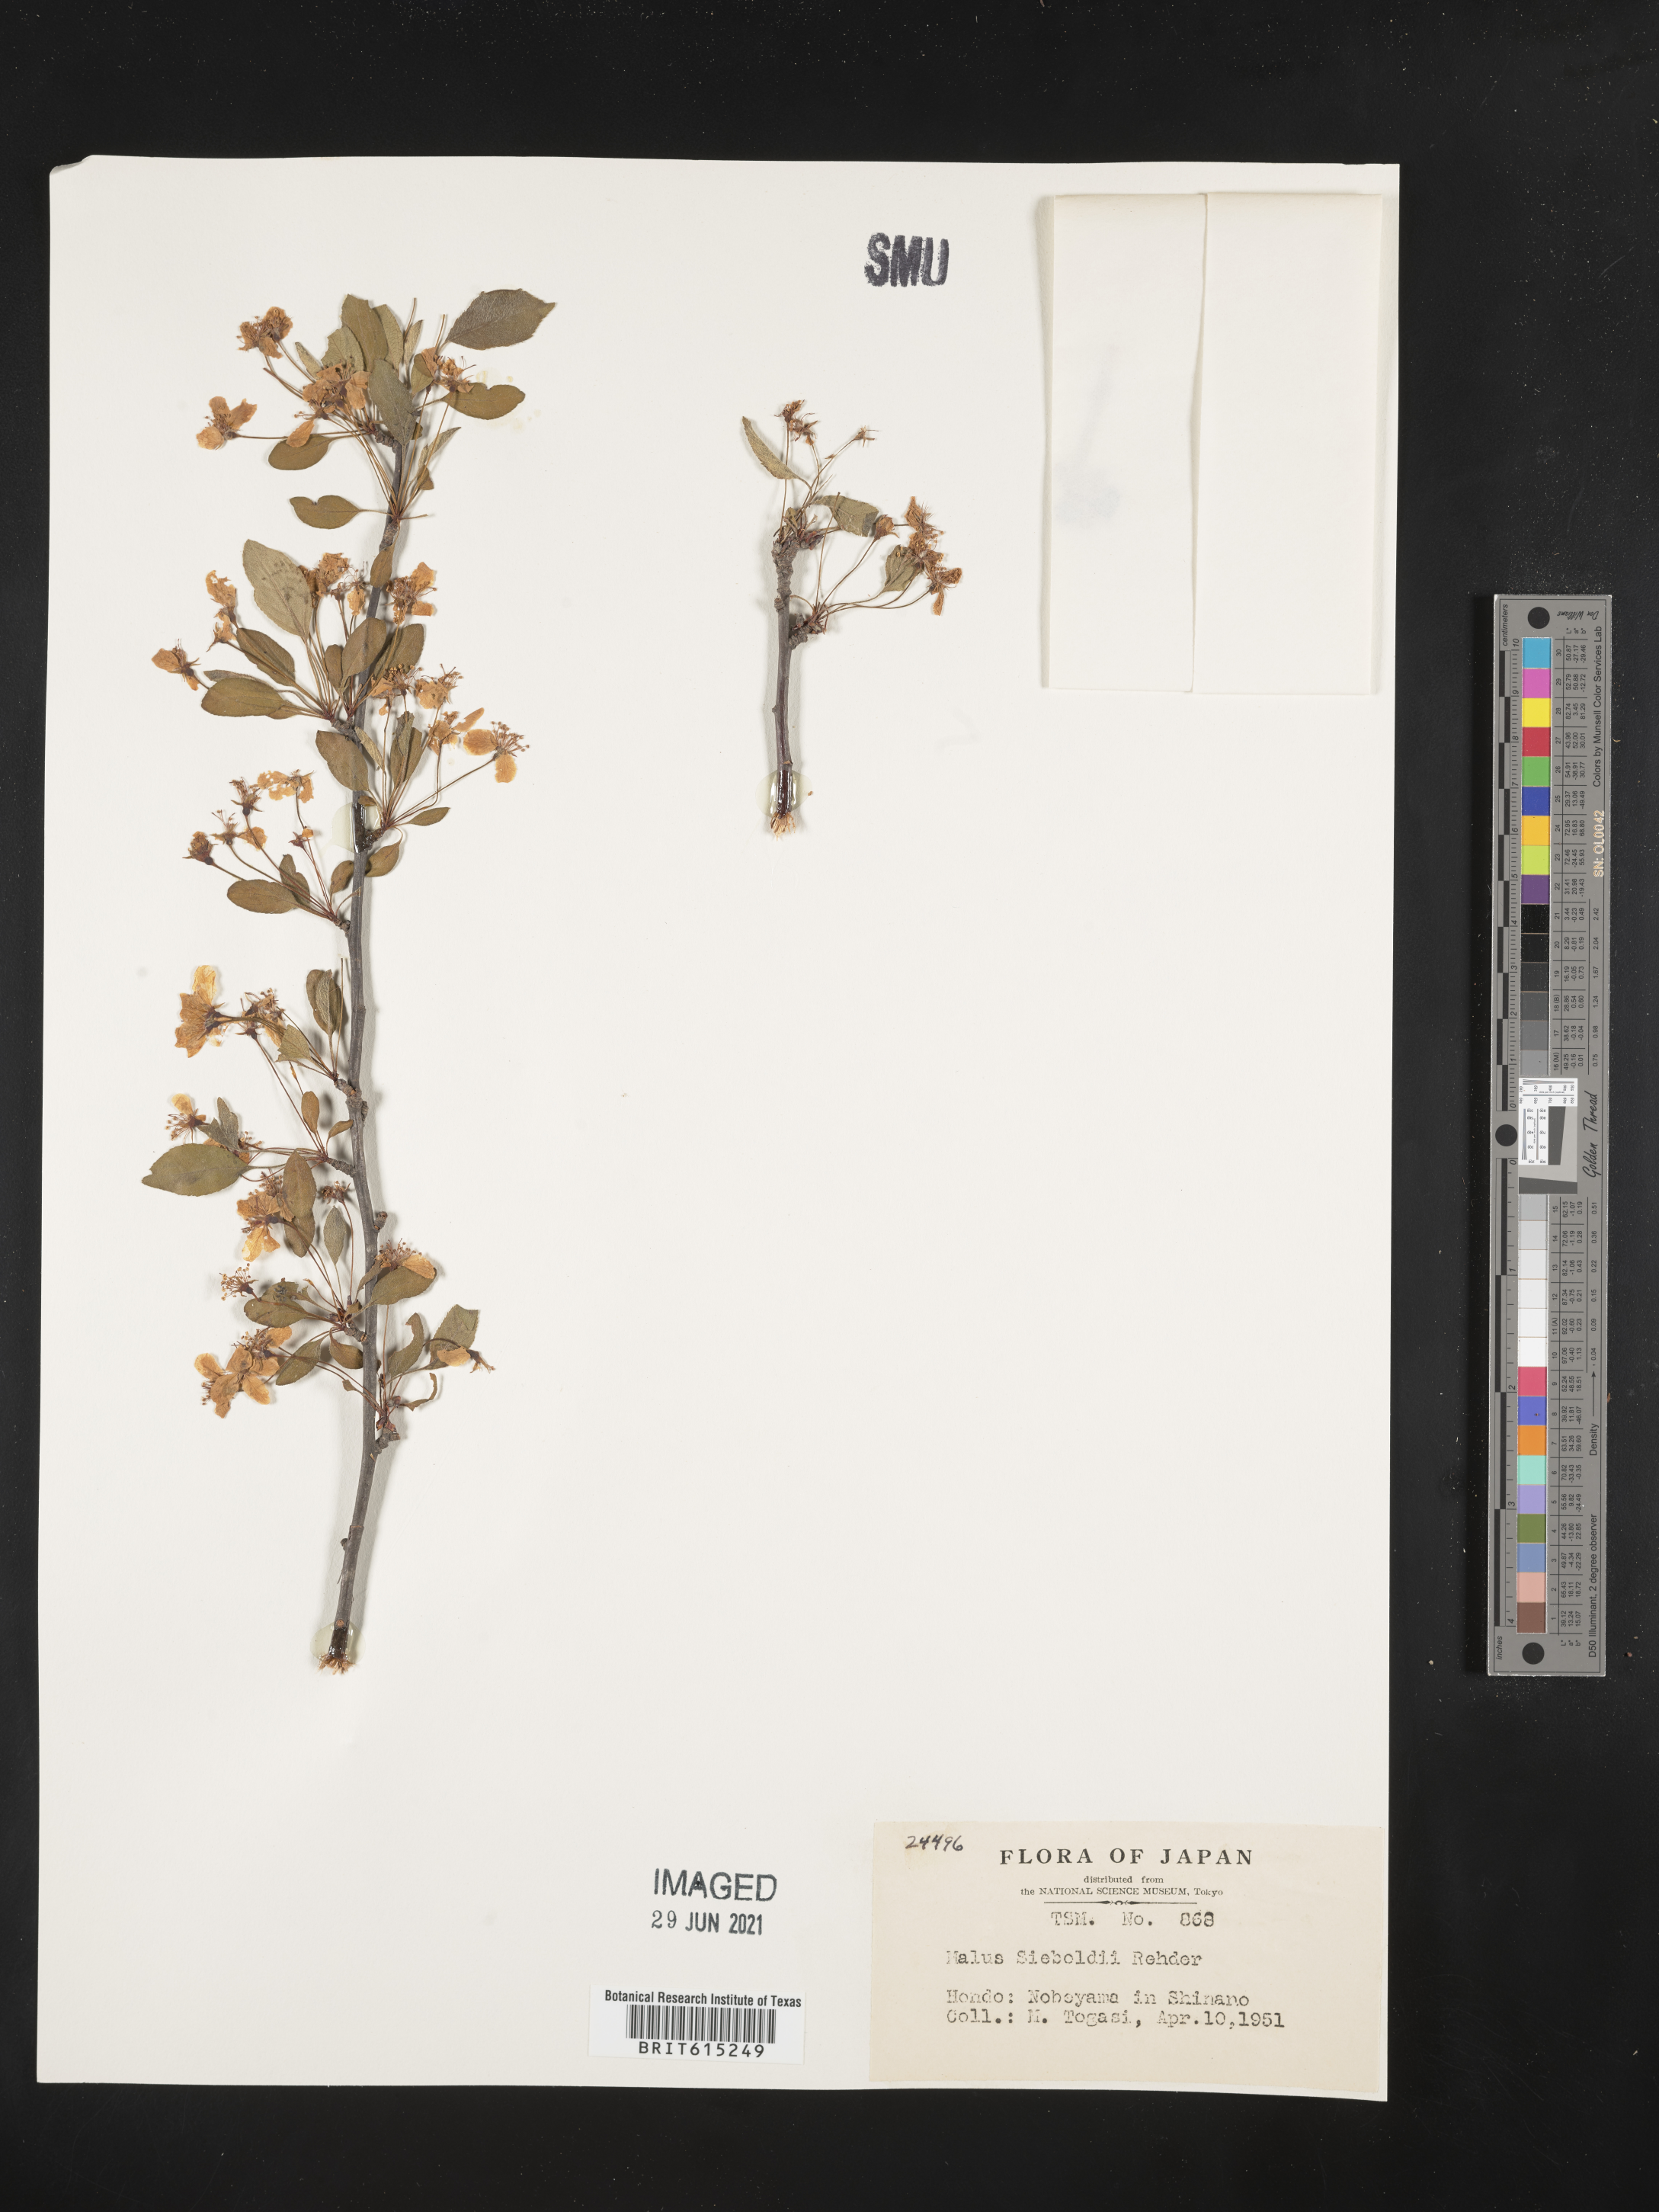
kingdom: Plantae
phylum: Tracheophyta
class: Magnoliopsida
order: Rosales
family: Rosaceae
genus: Malus
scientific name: Malus toringo
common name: Japanese crabapple
